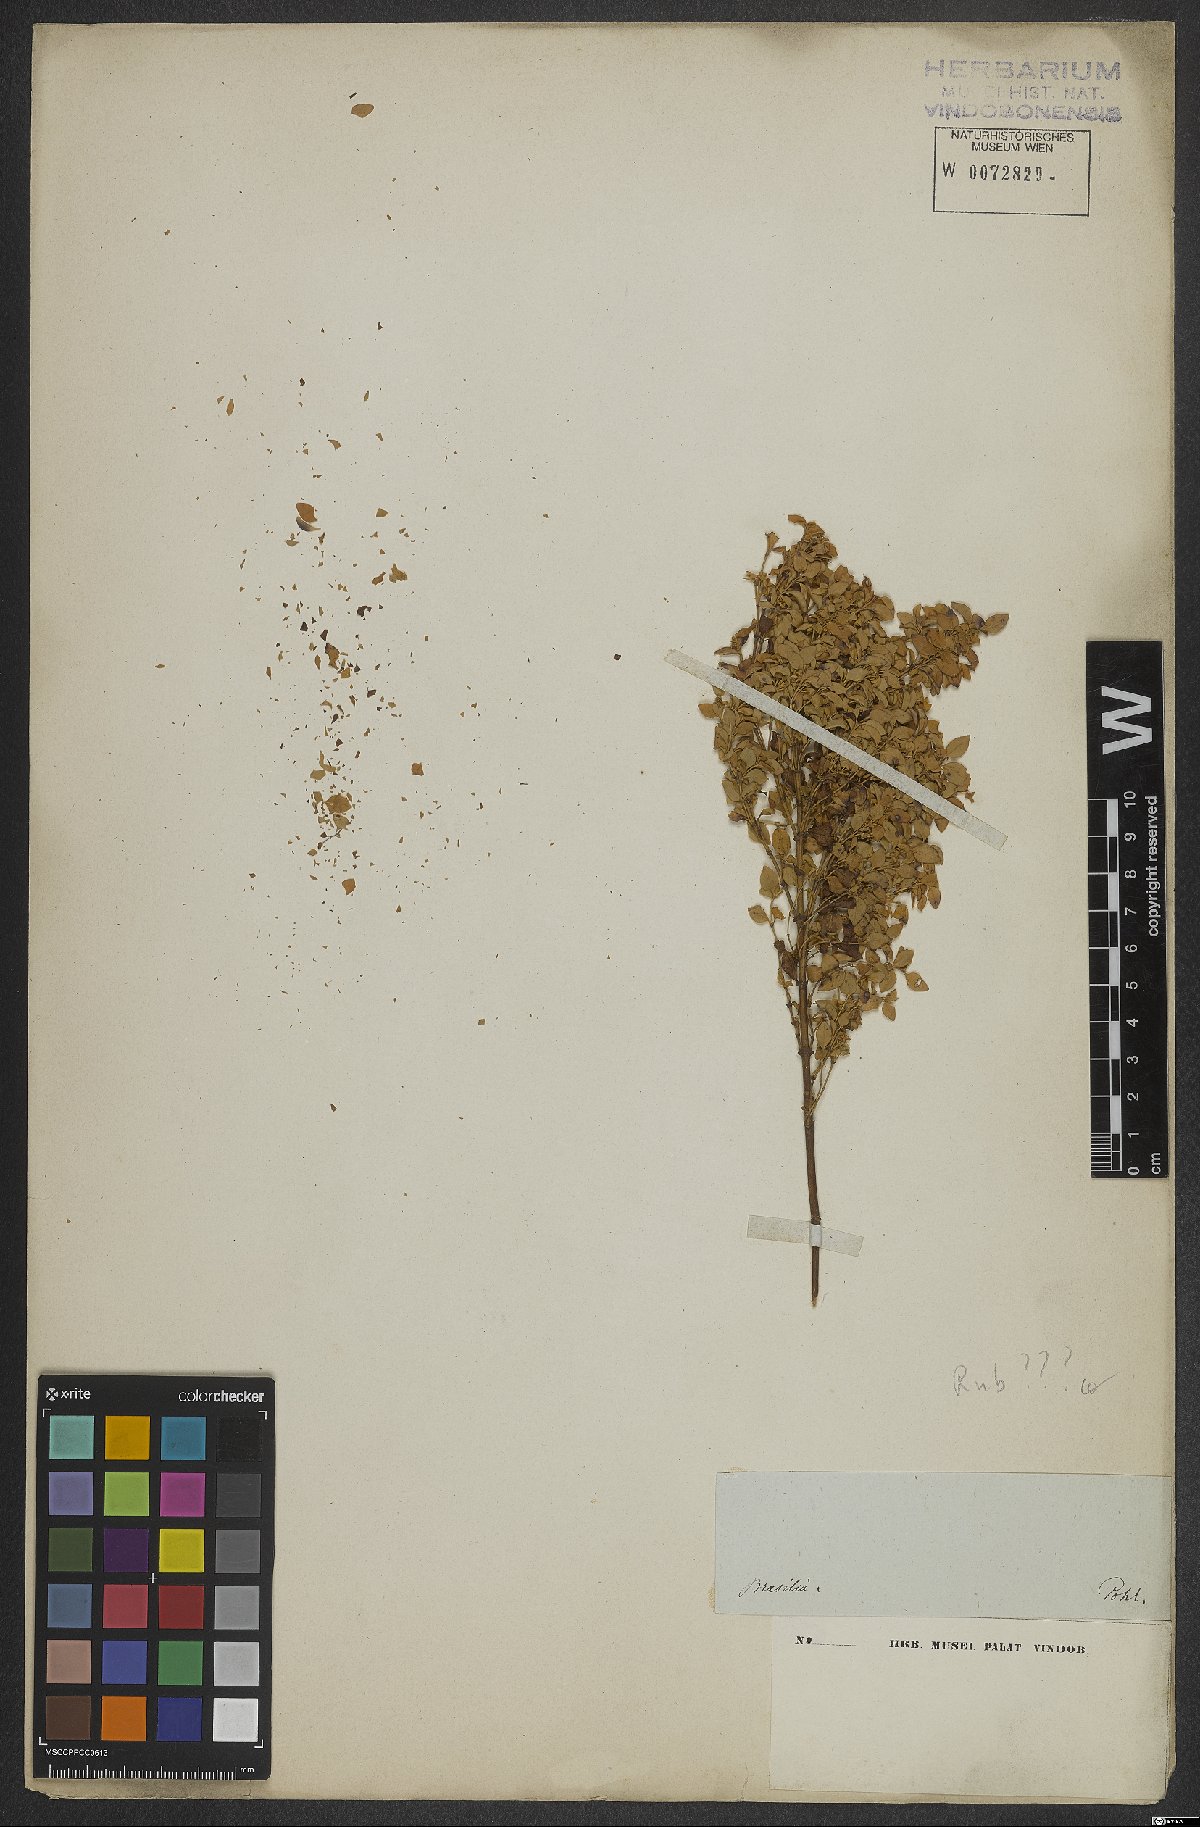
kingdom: Plantae
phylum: Tracheophyta
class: Magnoliopsida
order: Gentianales
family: Rubiaceae
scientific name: Rubiaceae
